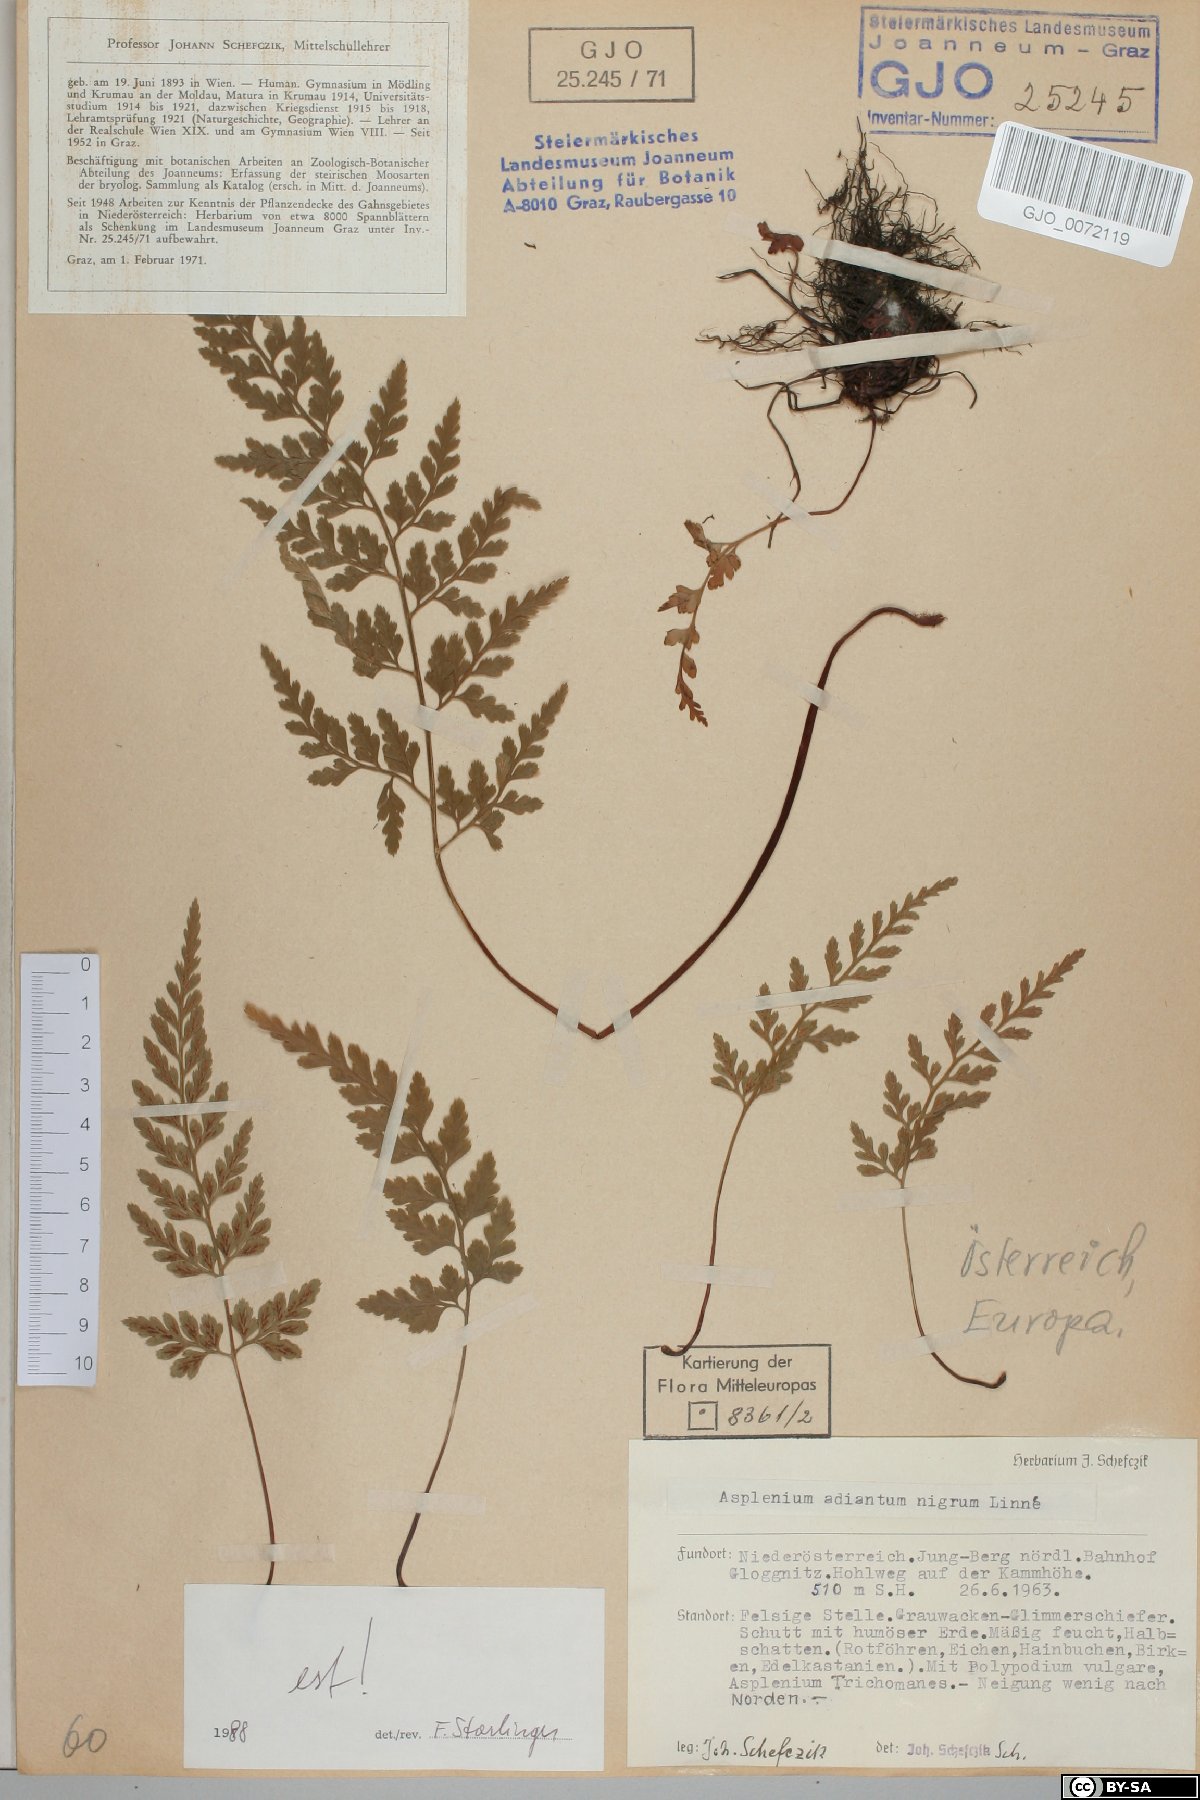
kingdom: Plantae
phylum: Tracheophyta
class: Polypodiopsida
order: Polypodiales
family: Aspleniaceae
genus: Asplenium
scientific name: Asplenium adiantum-nigrum
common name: Black spleenwort
